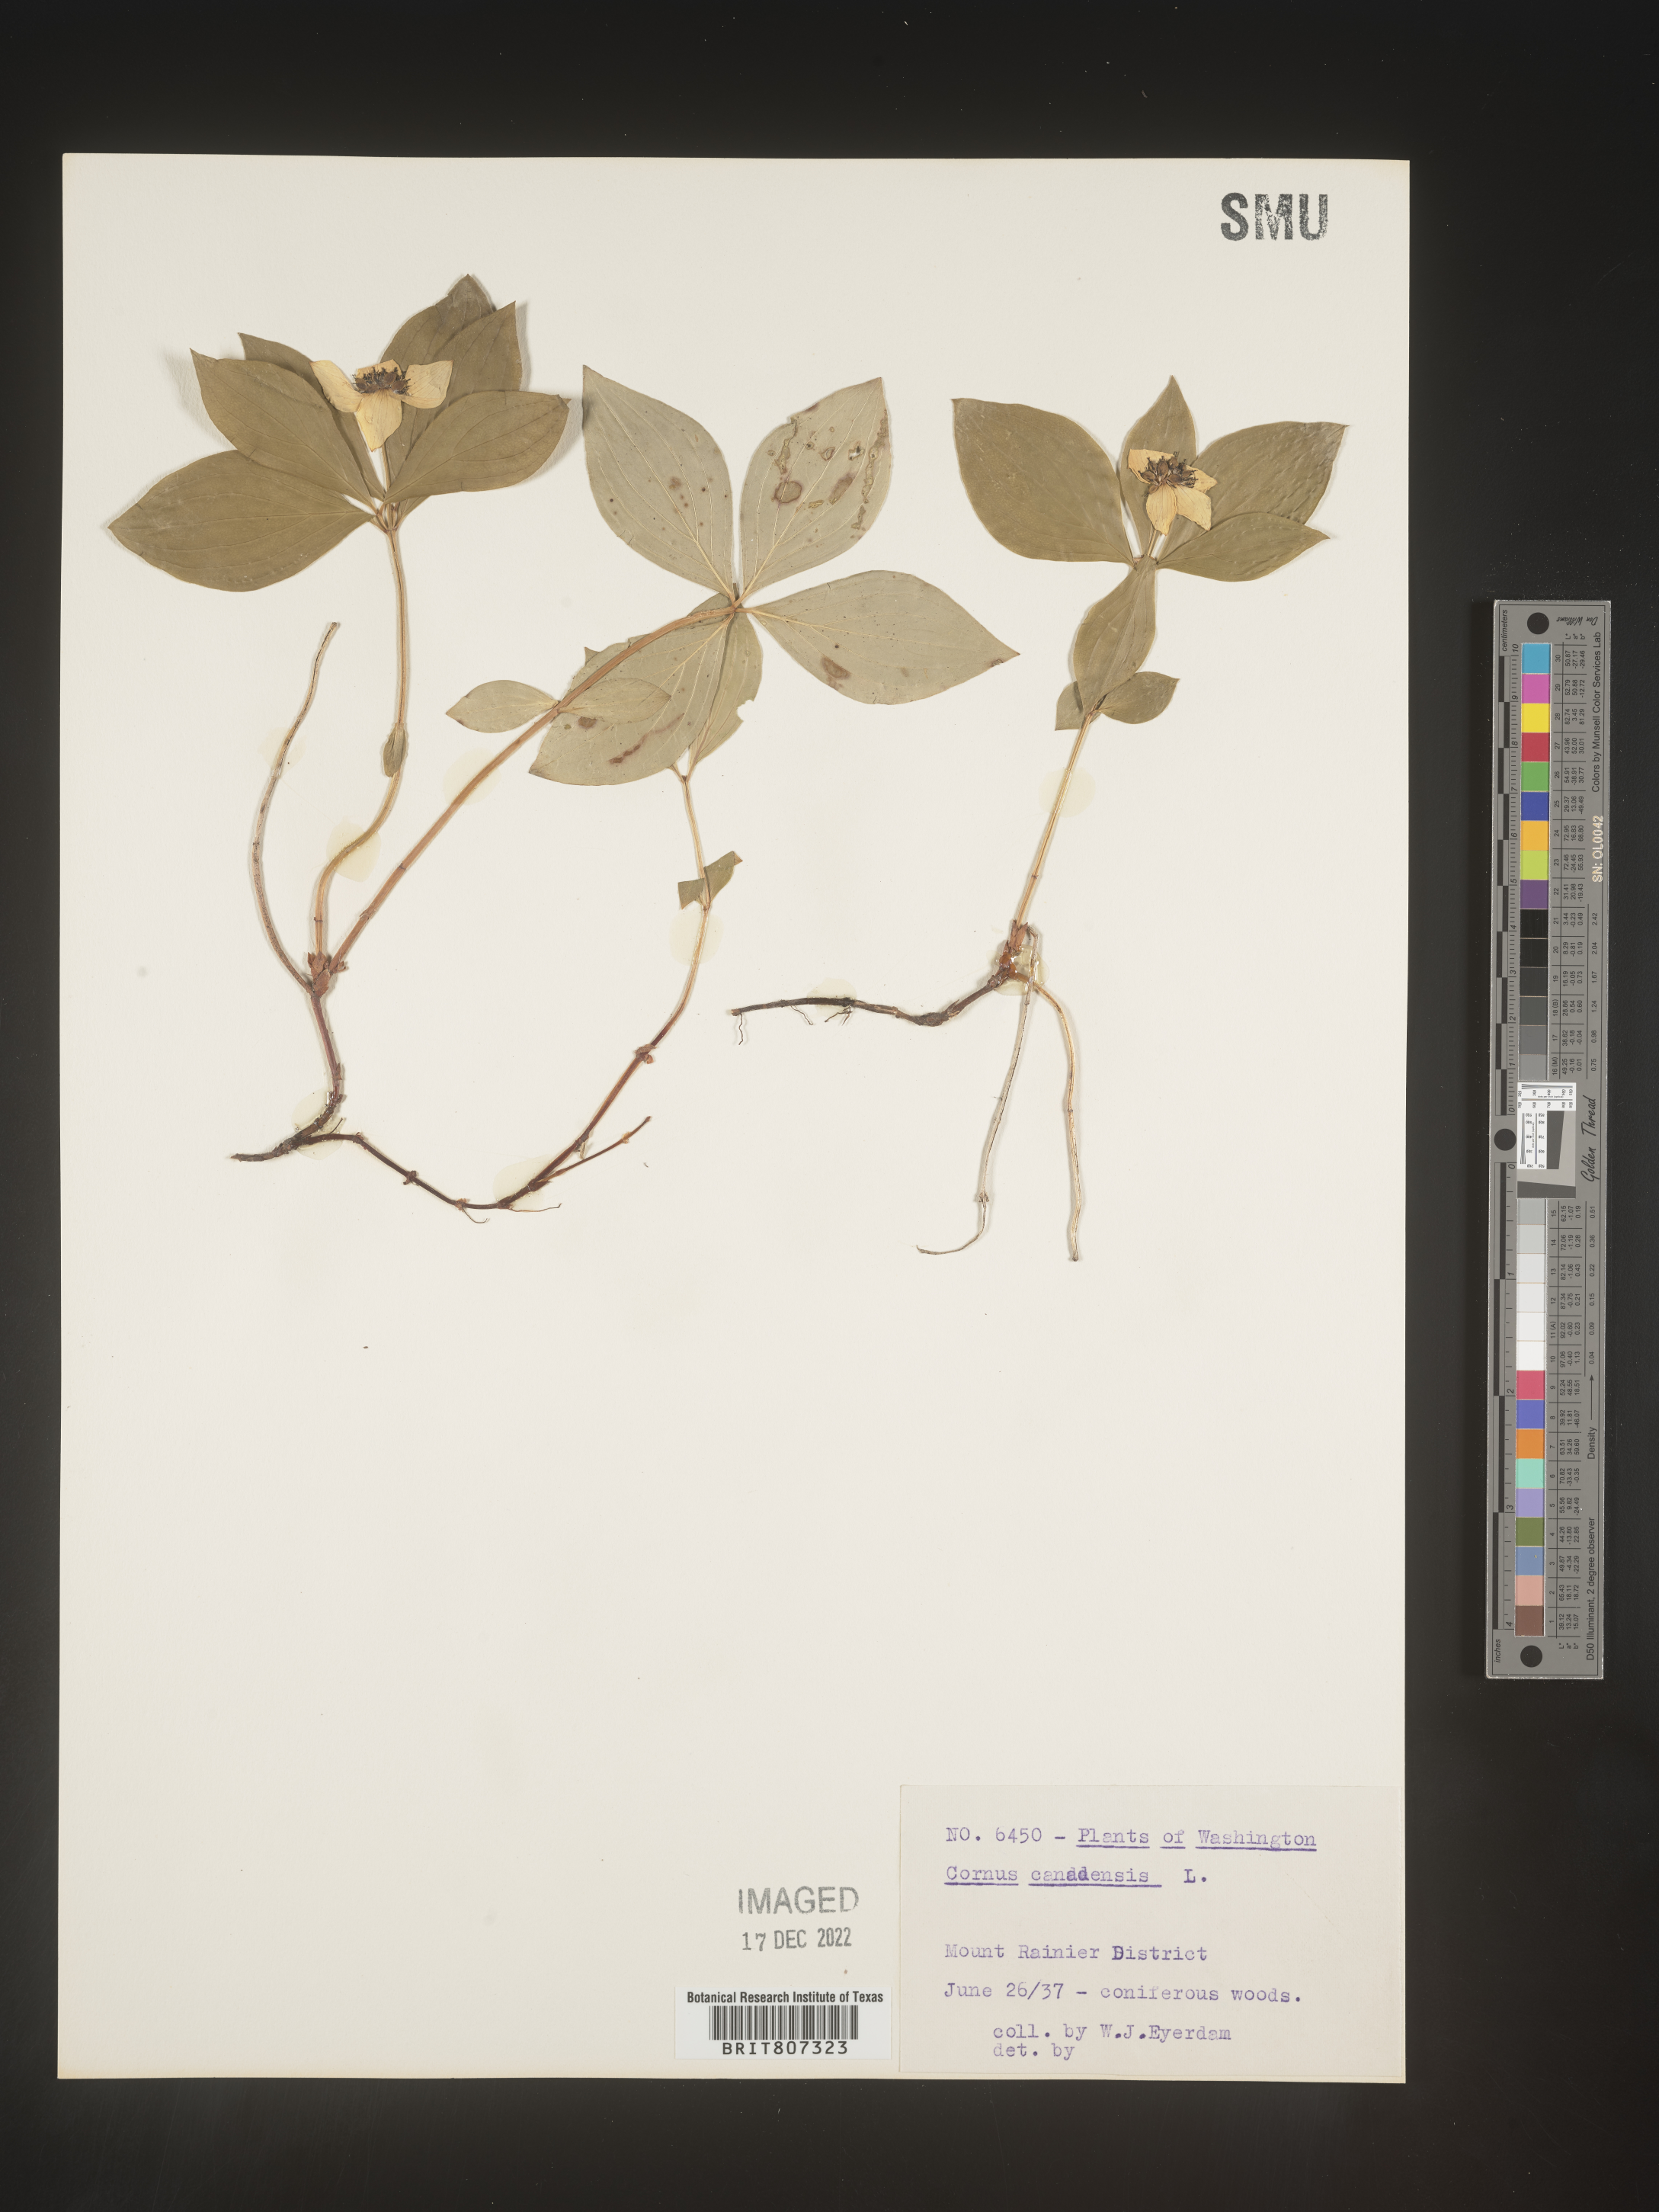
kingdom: Plantae
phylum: Tracheophyta
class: Magnoliopsida
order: Cornales
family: Cornaceae
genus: Cornus
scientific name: Cornus canadensis
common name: Creeping dogwood
